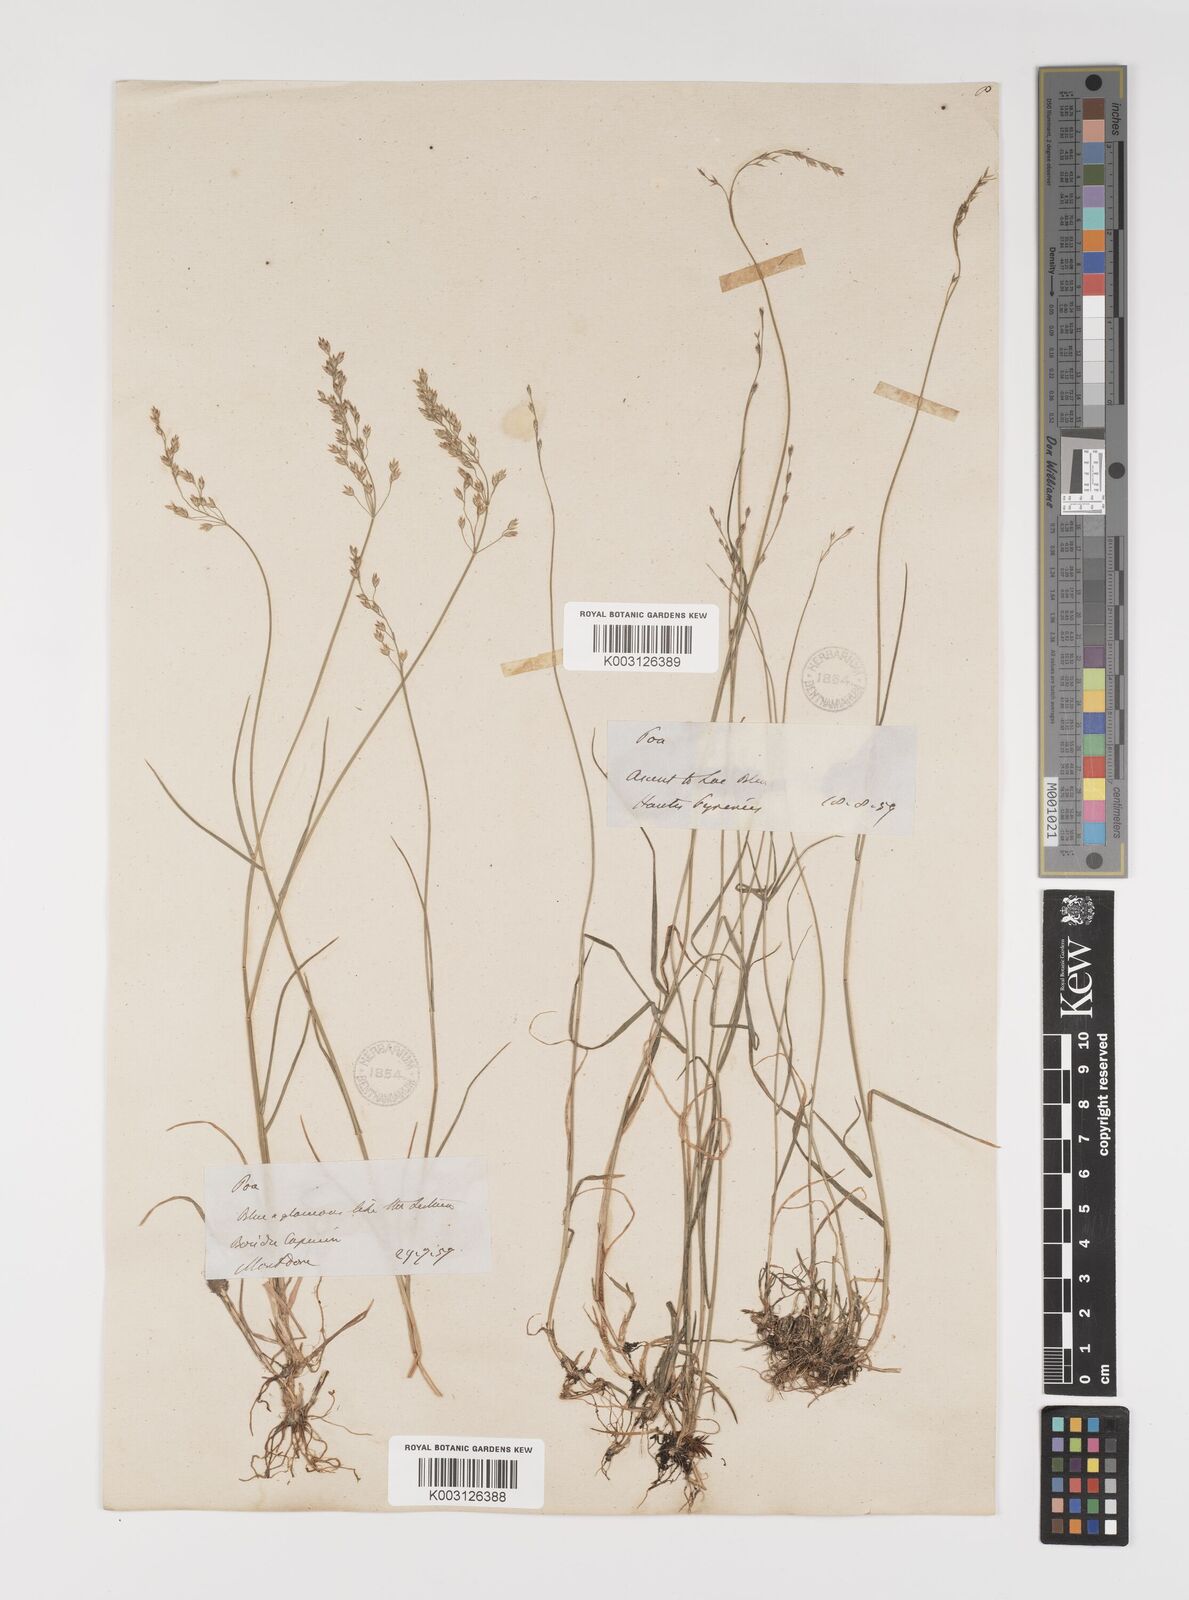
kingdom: Plantae
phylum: Tracheophyta
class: Liliopsida
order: Poales
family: Poaceae
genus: Poa
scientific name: Poa glauca
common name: Glaucous bluegrass
